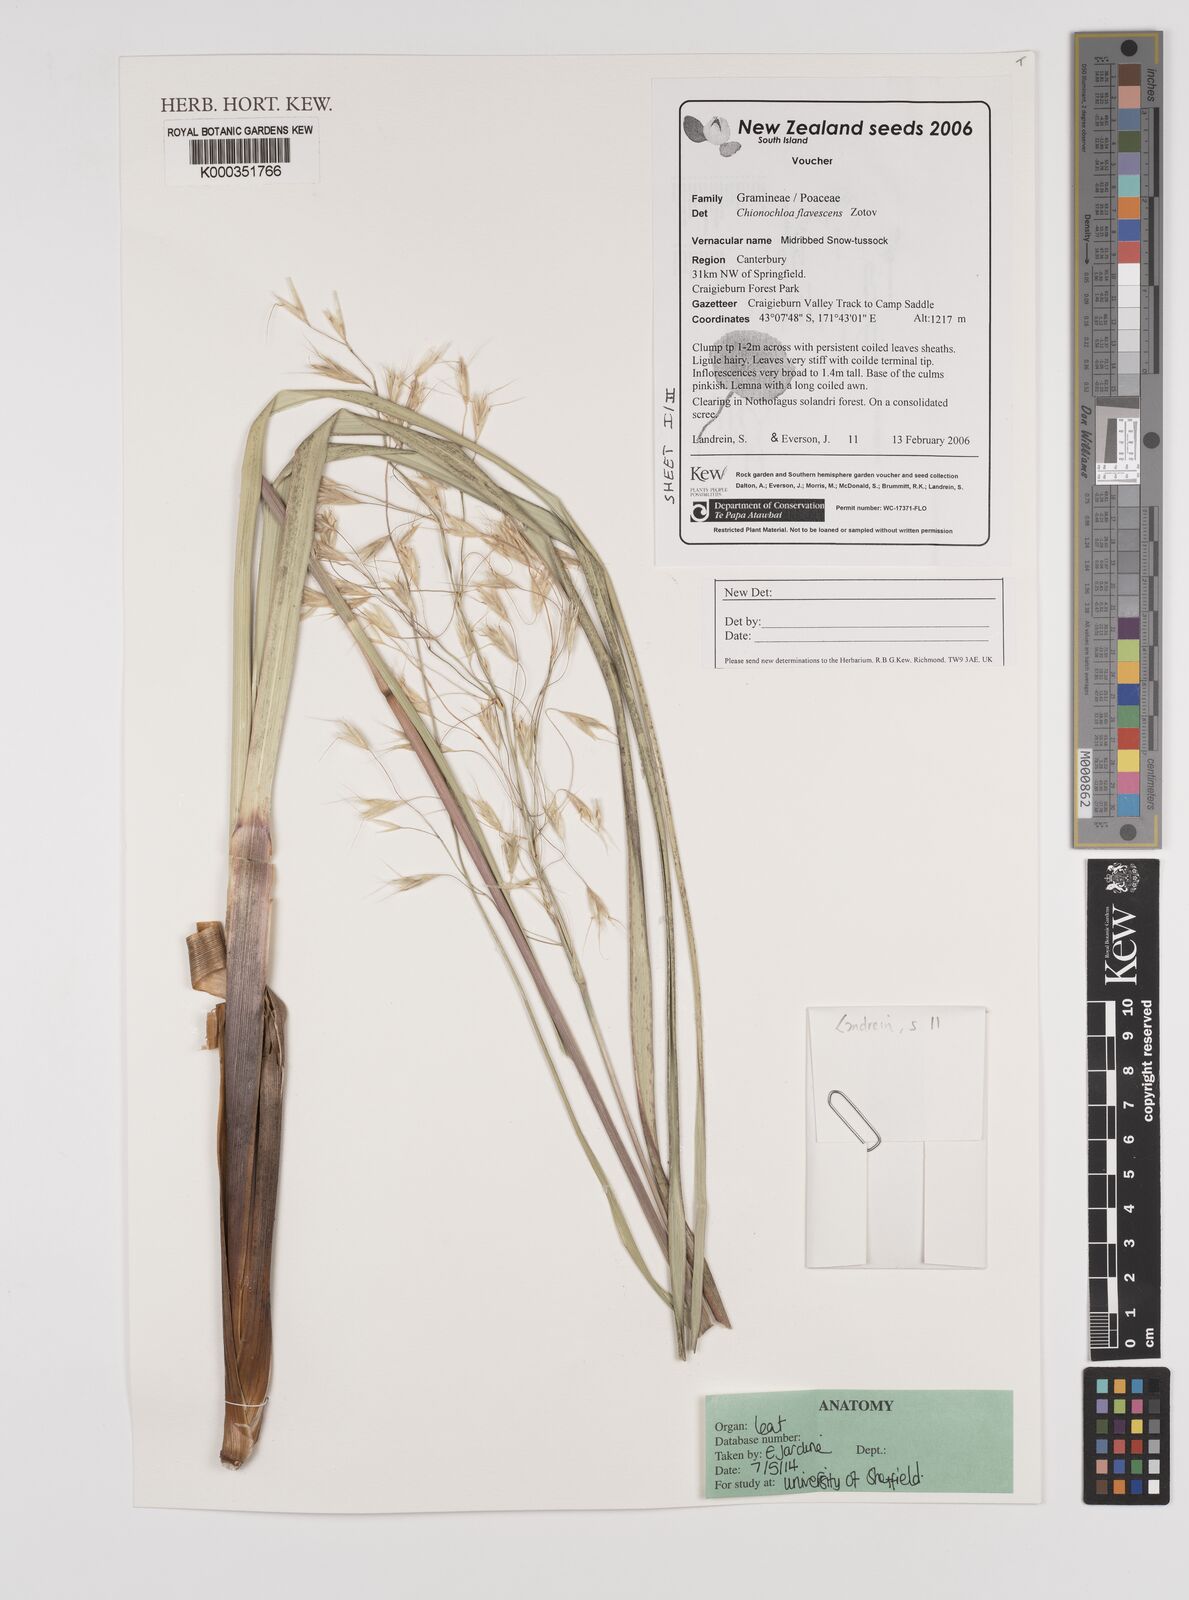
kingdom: Plantae
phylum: Tracheophyta
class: Liliopsida
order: Poales
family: Poaceae
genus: Chionochloa
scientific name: Chionochloa flavescens
